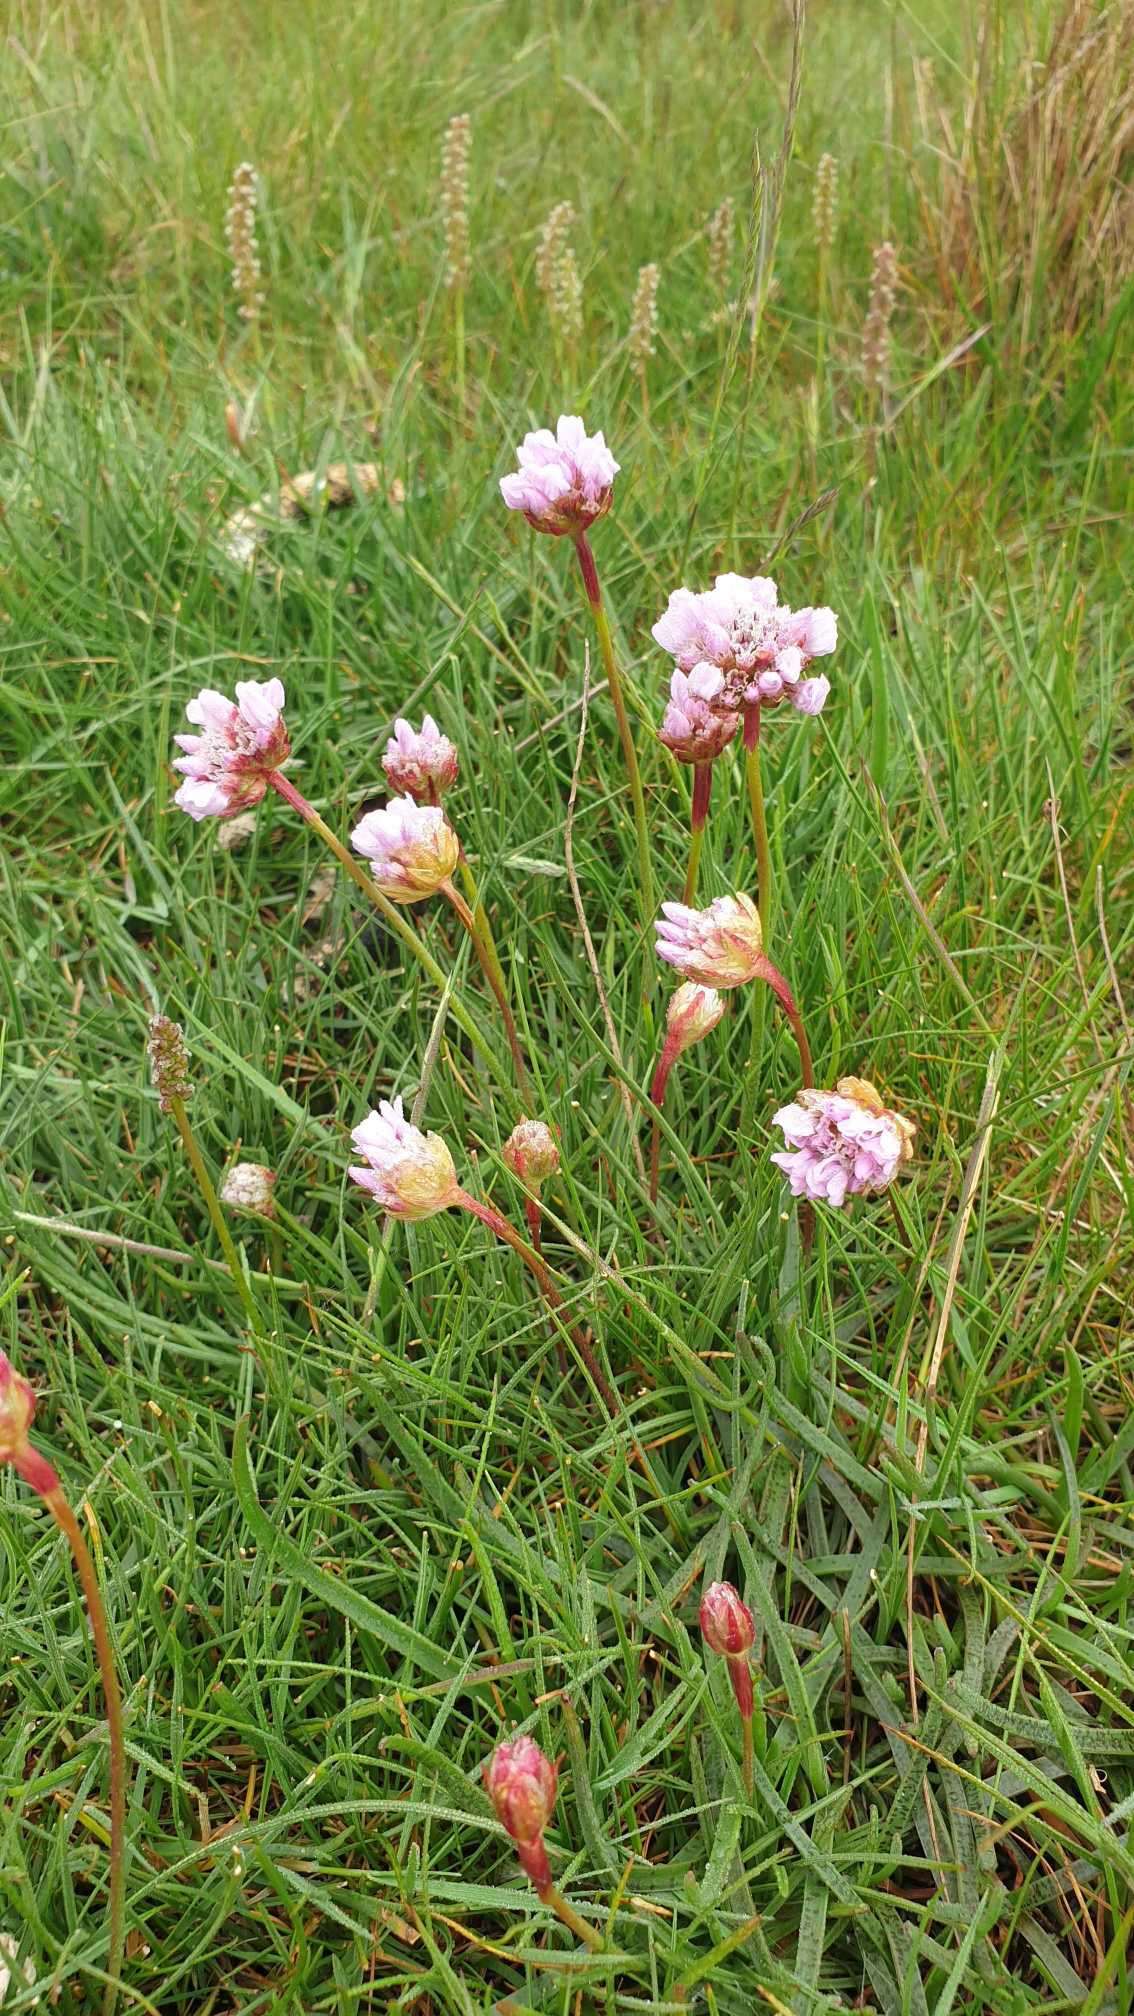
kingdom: Plantae
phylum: Tracheophyta
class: Magnoliopsida
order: Caryophyllales
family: Plumbaginaceae
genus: Armeria
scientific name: Armeria maritima
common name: Engelskgræs
